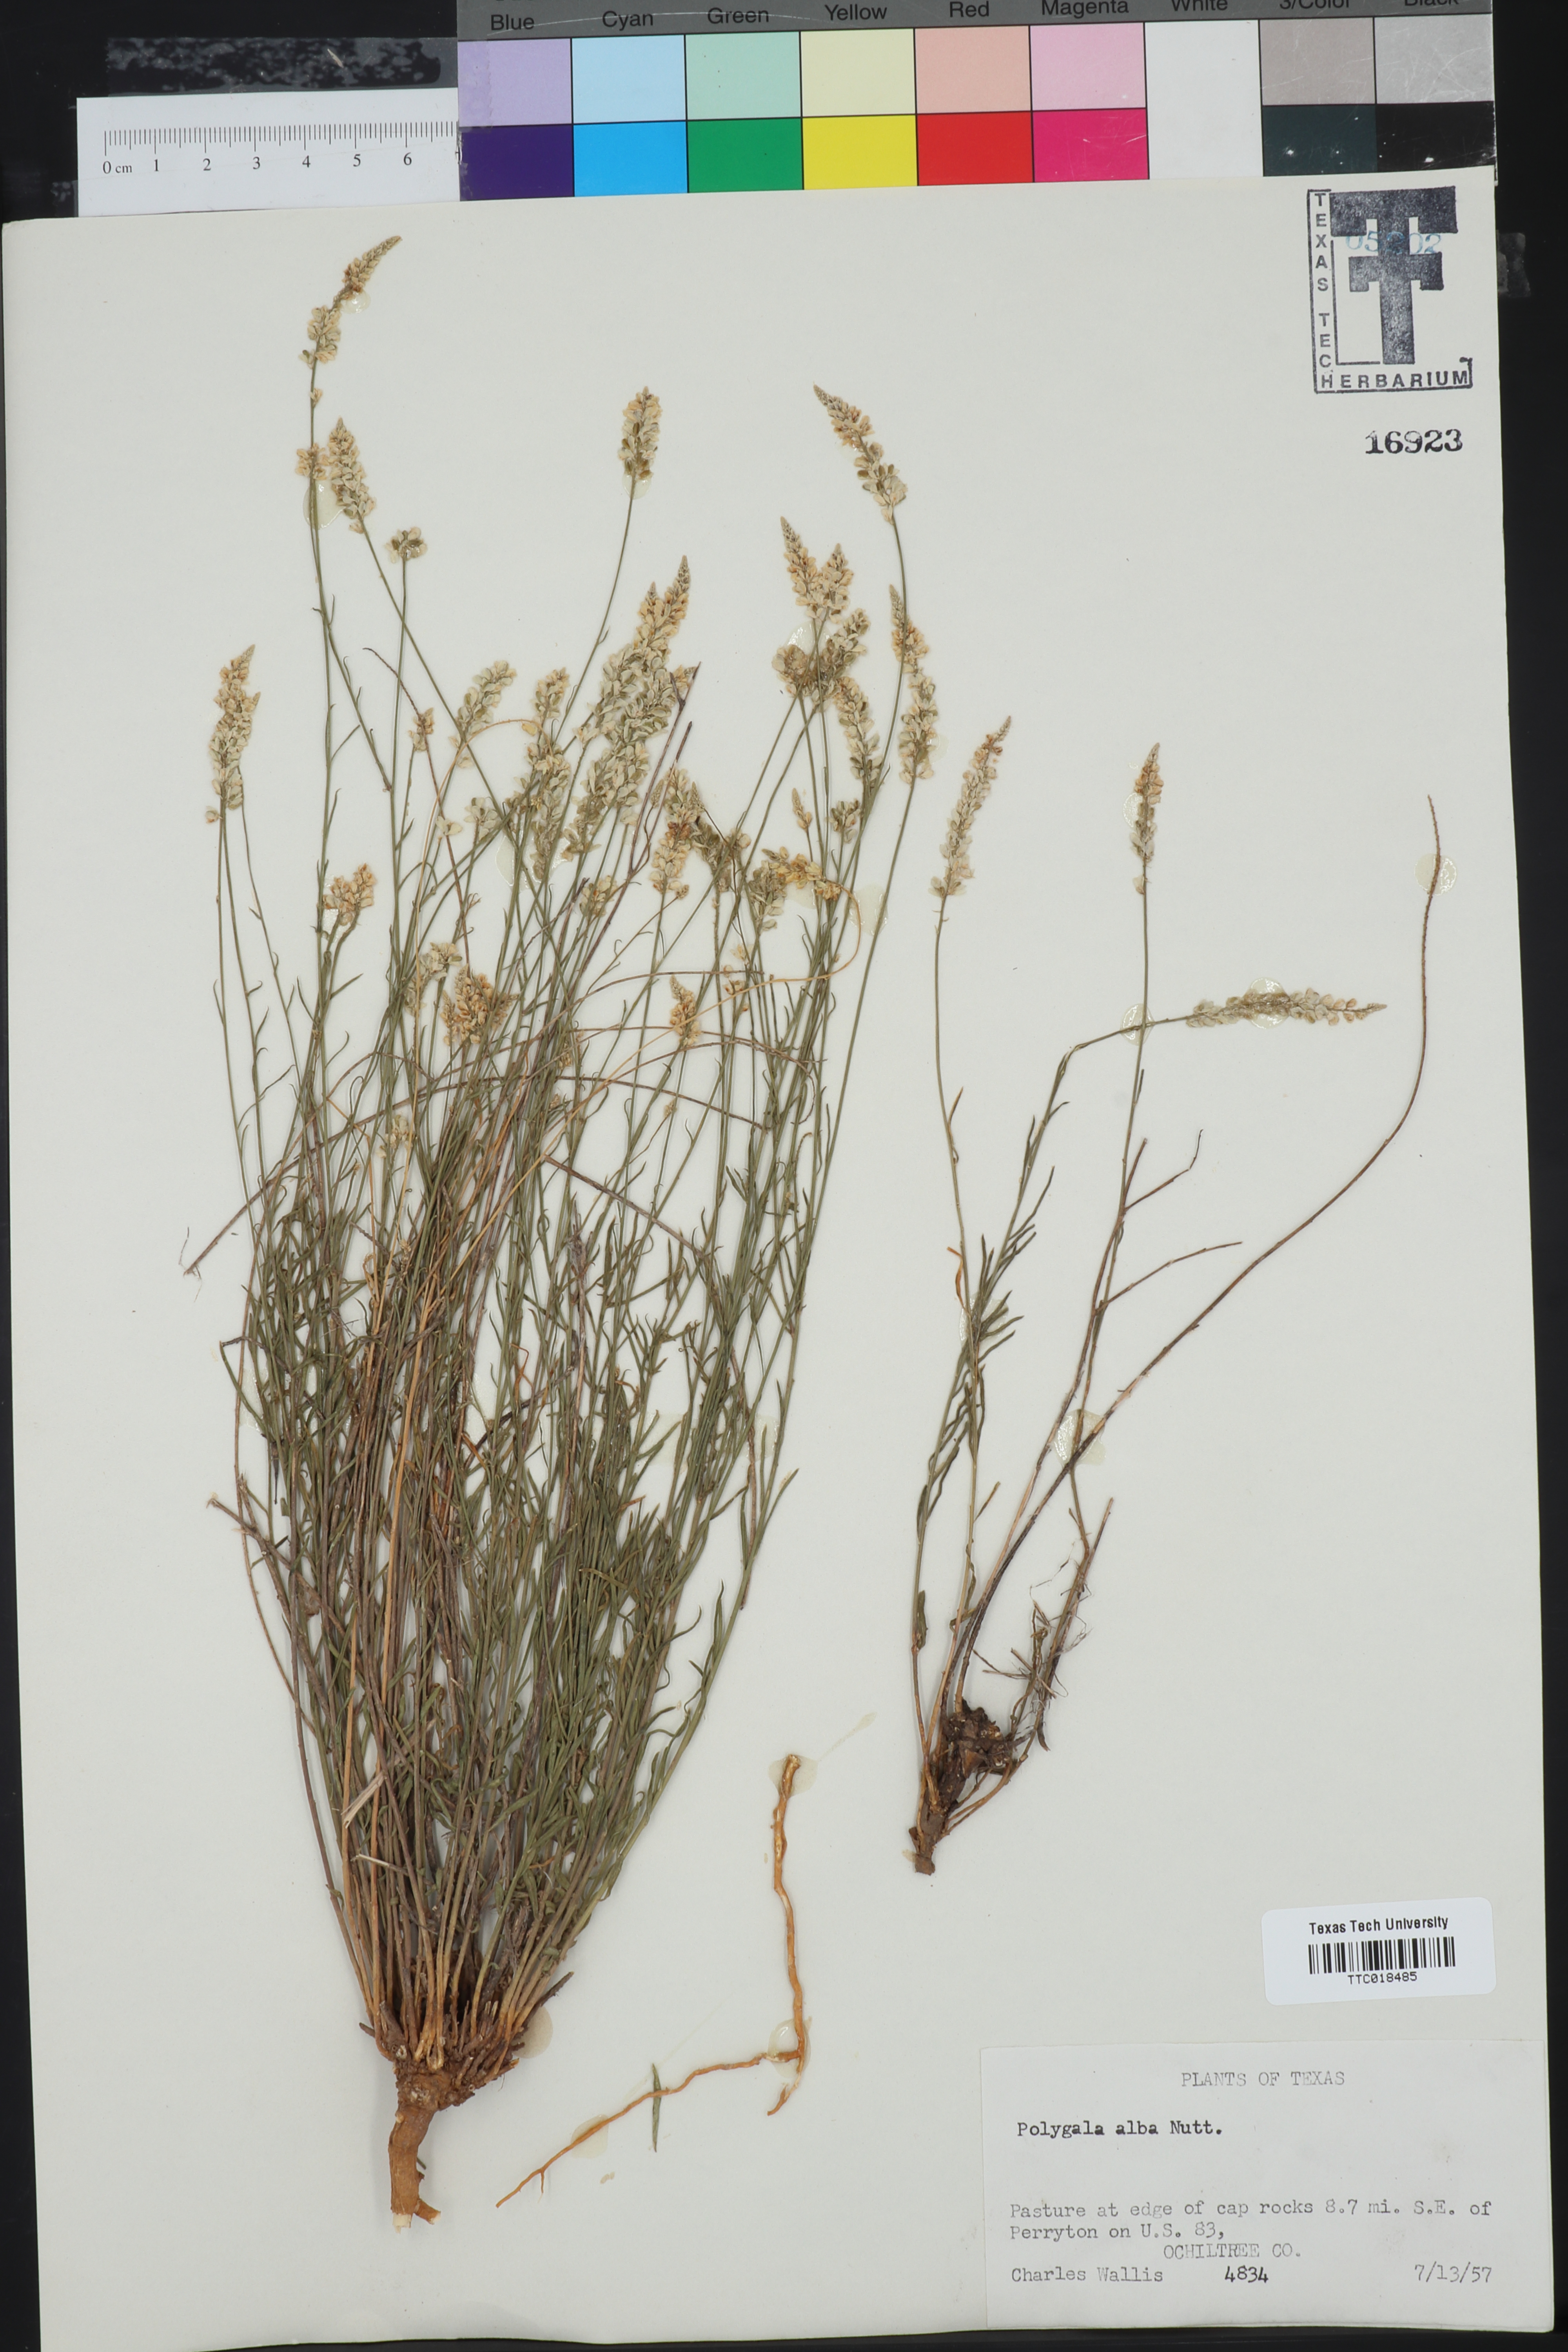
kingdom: Plantae
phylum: Tracheophyta
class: Magnoliopsida
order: Fabales
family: Polygalaceae
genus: Polygala
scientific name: Polygala alba
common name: White milkwort
